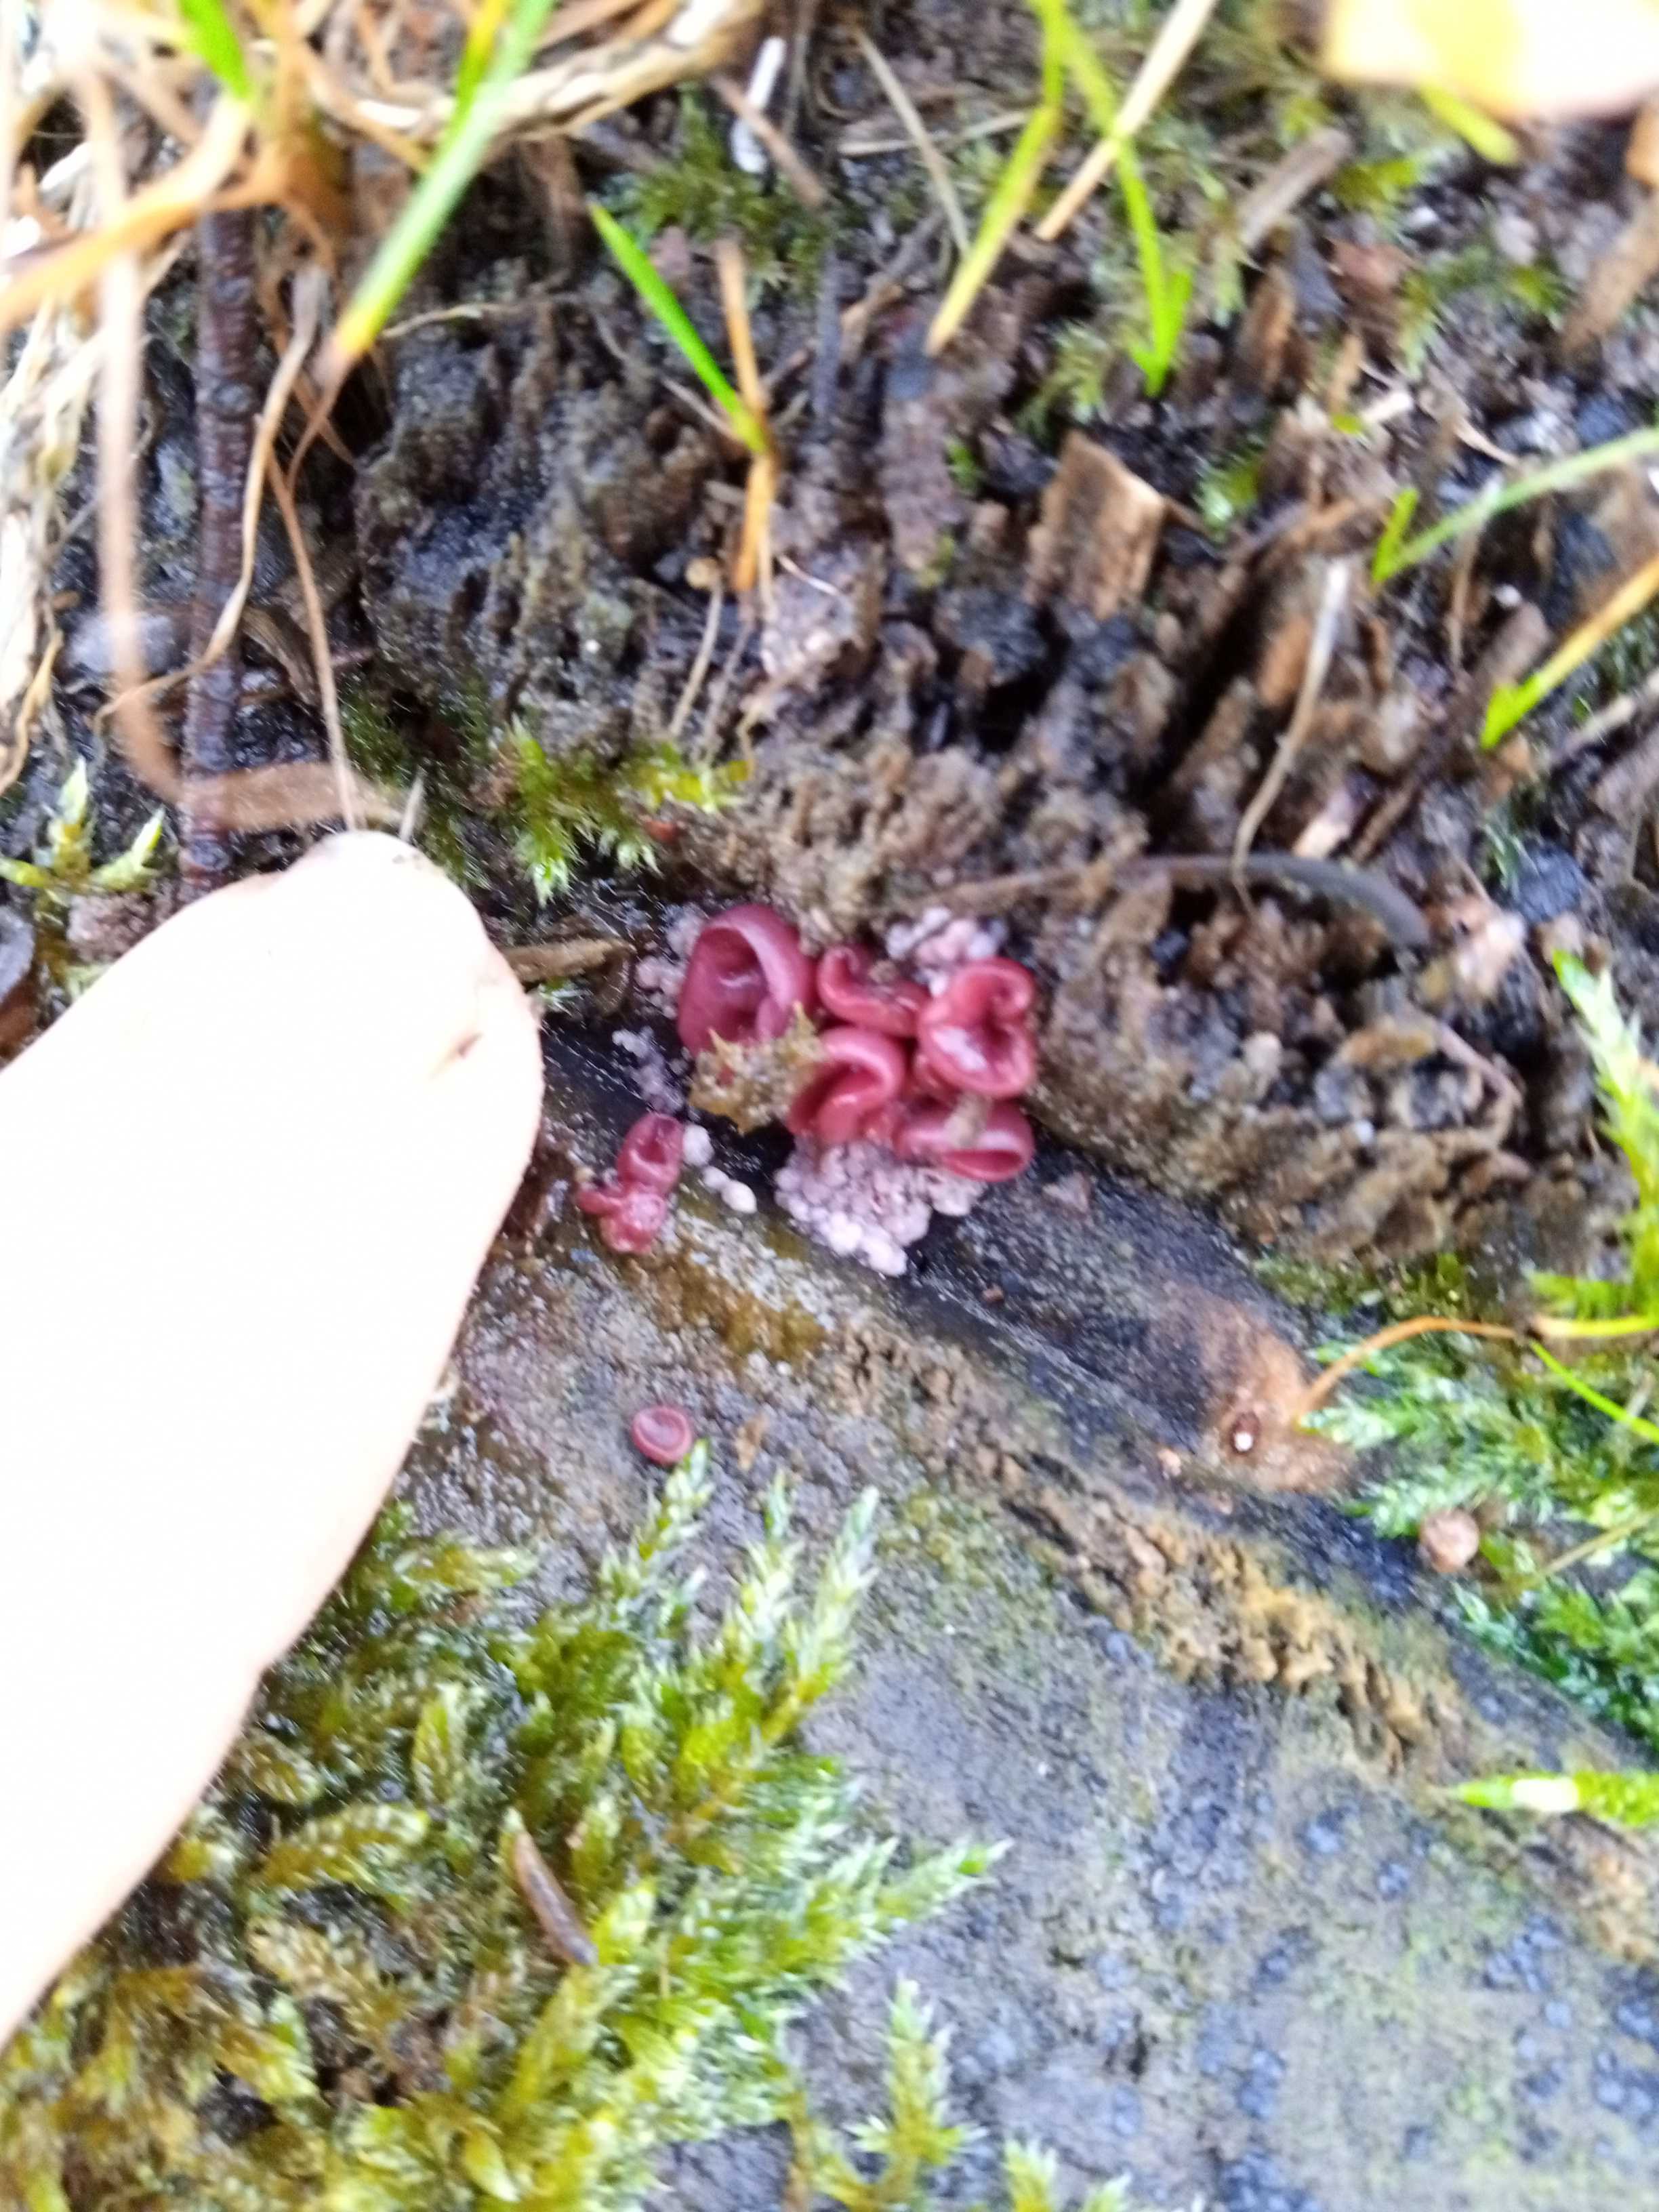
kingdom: Fungi
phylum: Ascomycota
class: Leotiomycetes
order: Helotiales
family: Gelatinodiscaceae
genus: Ascocoryne
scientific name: Ascocoryne sarcoides
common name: rødlilla sejskive
